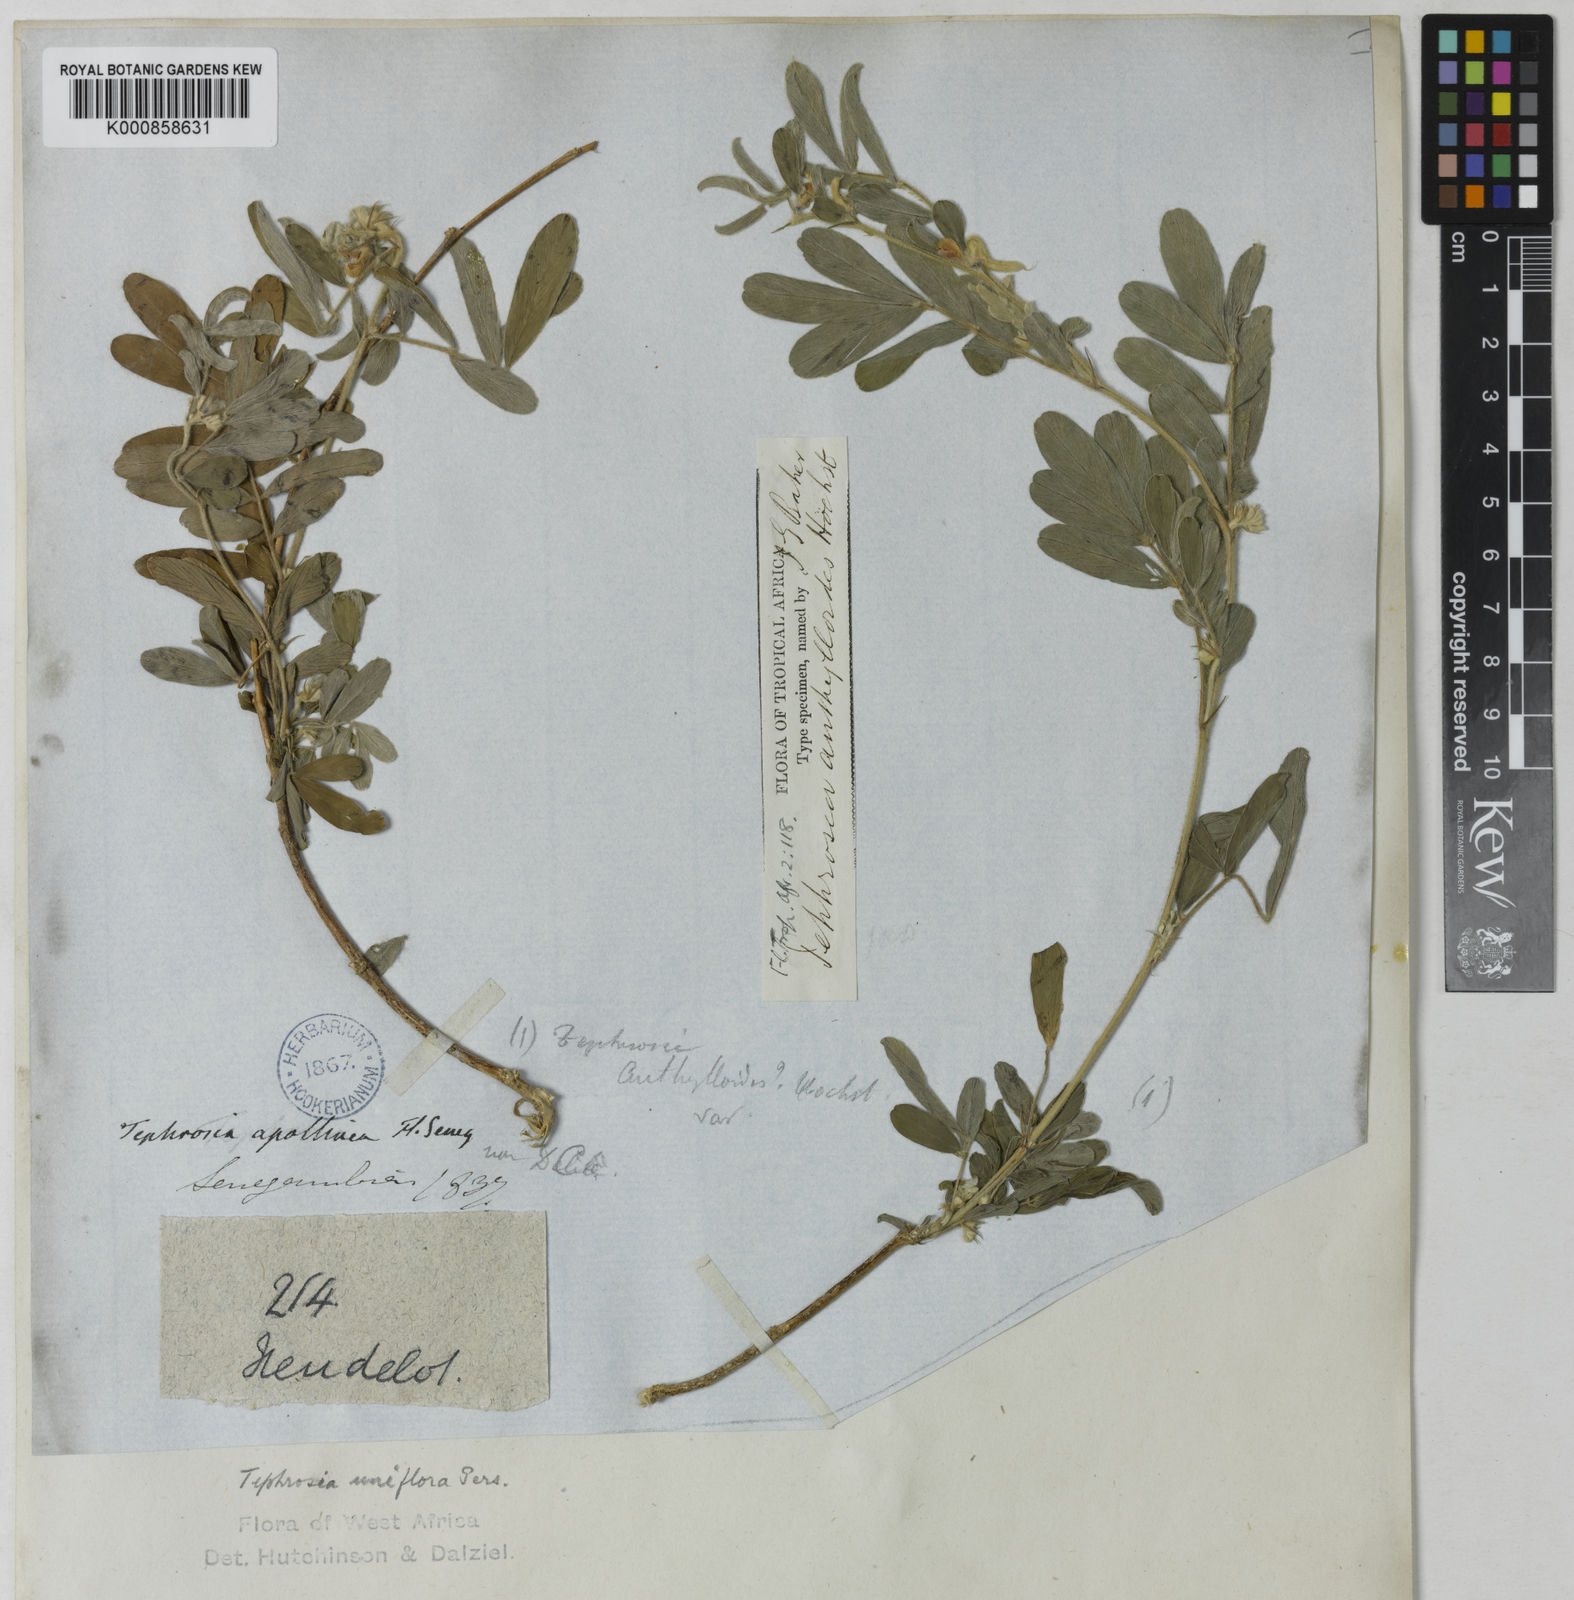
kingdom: Plantae
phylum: Tracheophyta
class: Magnoliopsida
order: Fabales
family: Fabaceae
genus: Tephrosia
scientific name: Tephrosia uniflora
